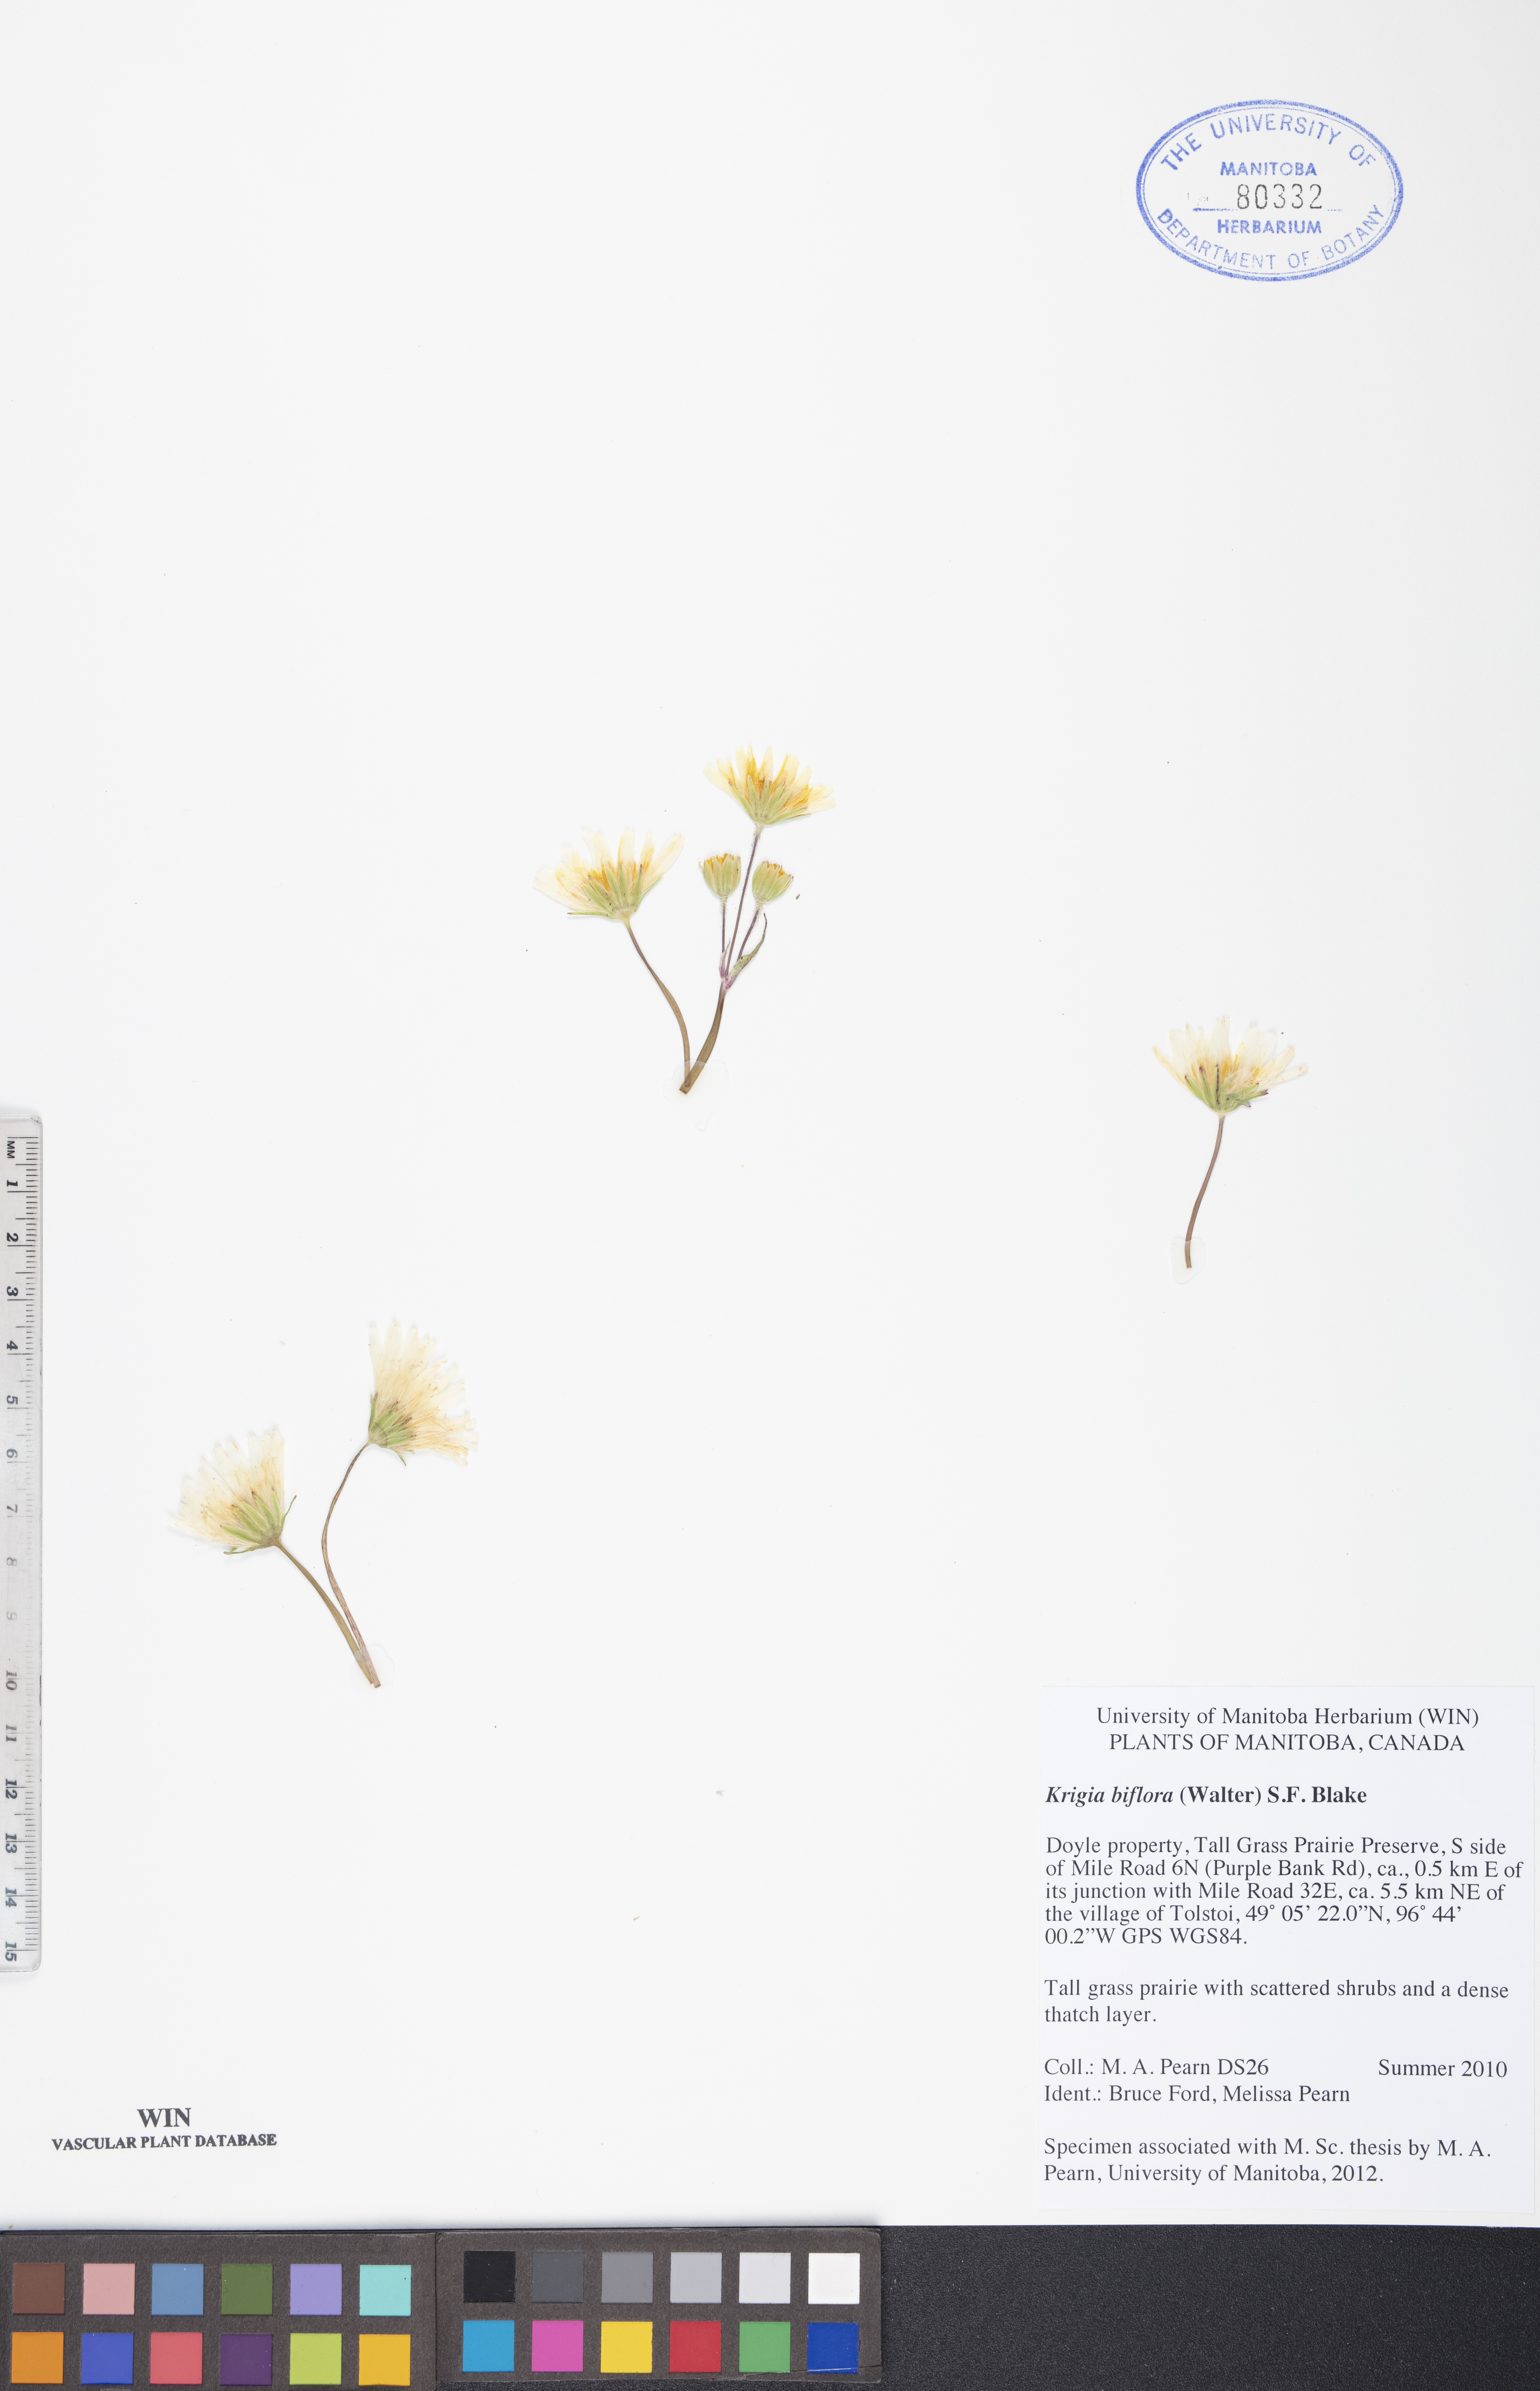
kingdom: Plantae
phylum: Tracheophyta
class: Magnoliopsida
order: Asterales
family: Asteraceae
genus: Krigia
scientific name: Krigia biflora
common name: Orange dwarf-dandelion
